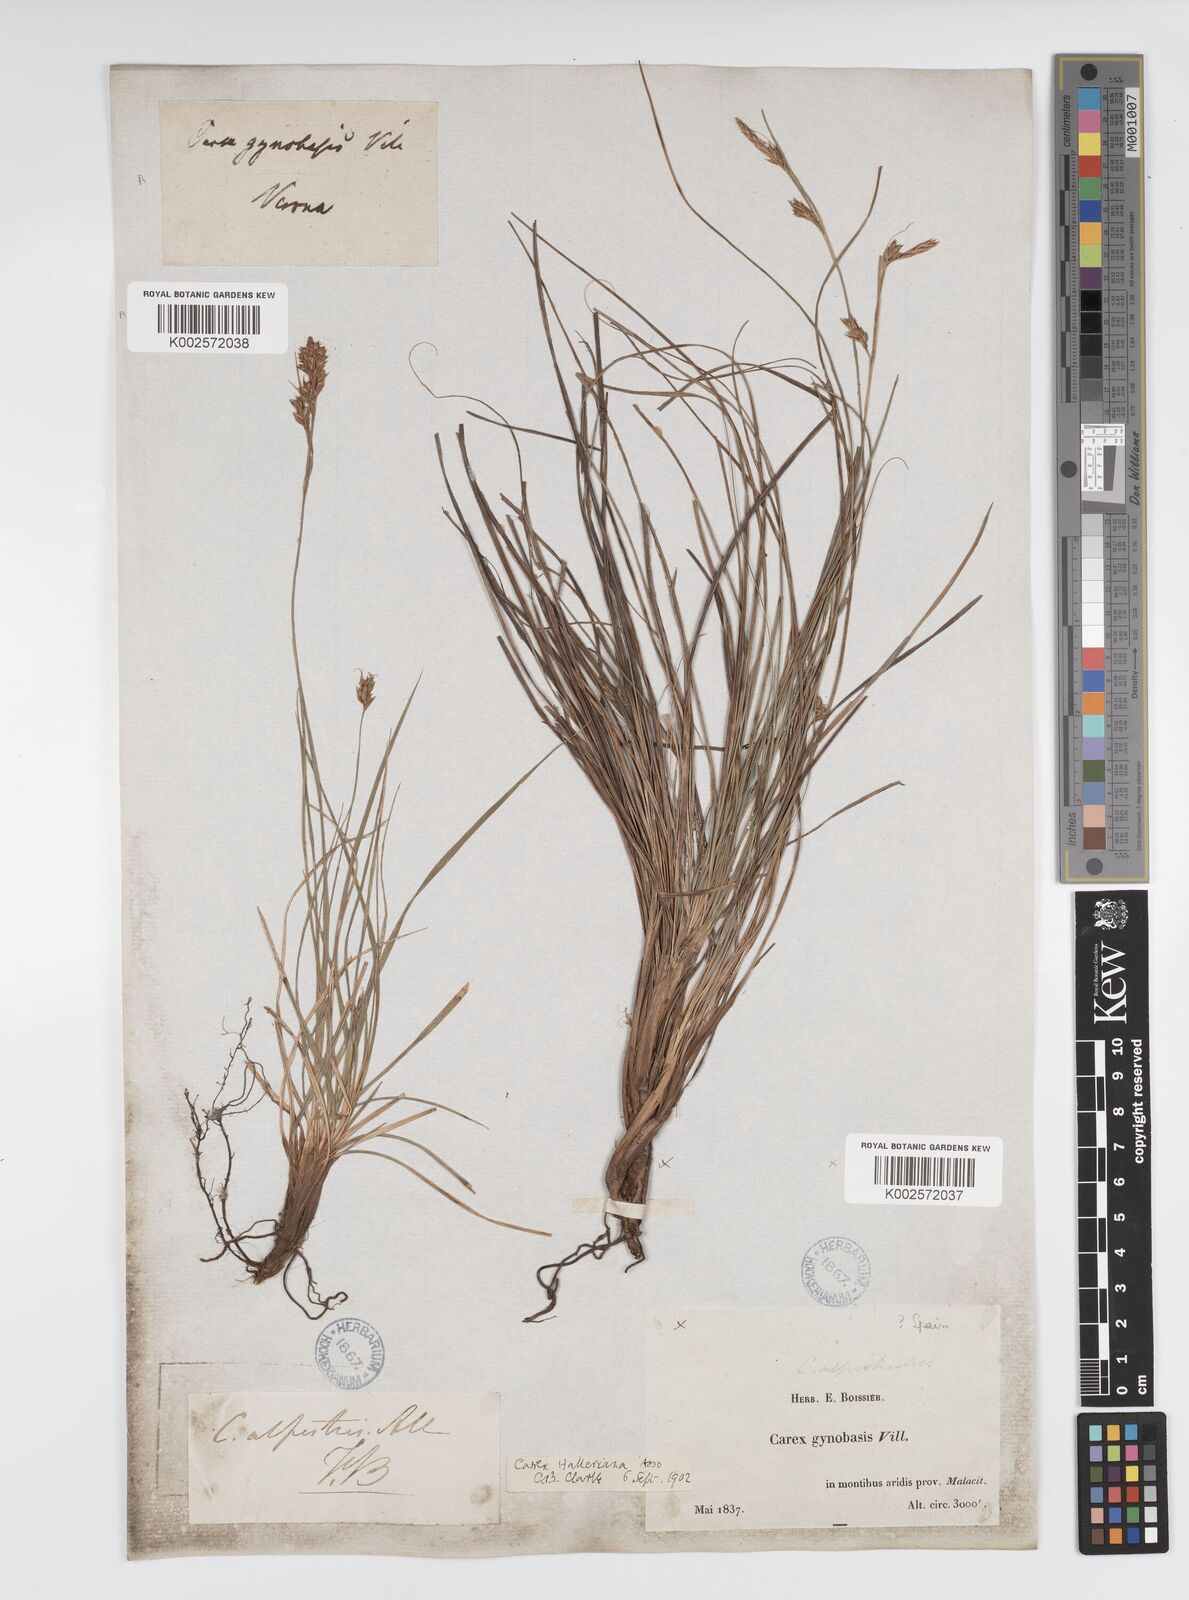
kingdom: Plantae
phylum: Tracheophyta
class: Liliopsida
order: Poales
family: Cyperaceae
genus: Carex
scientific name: Carex halleriana
